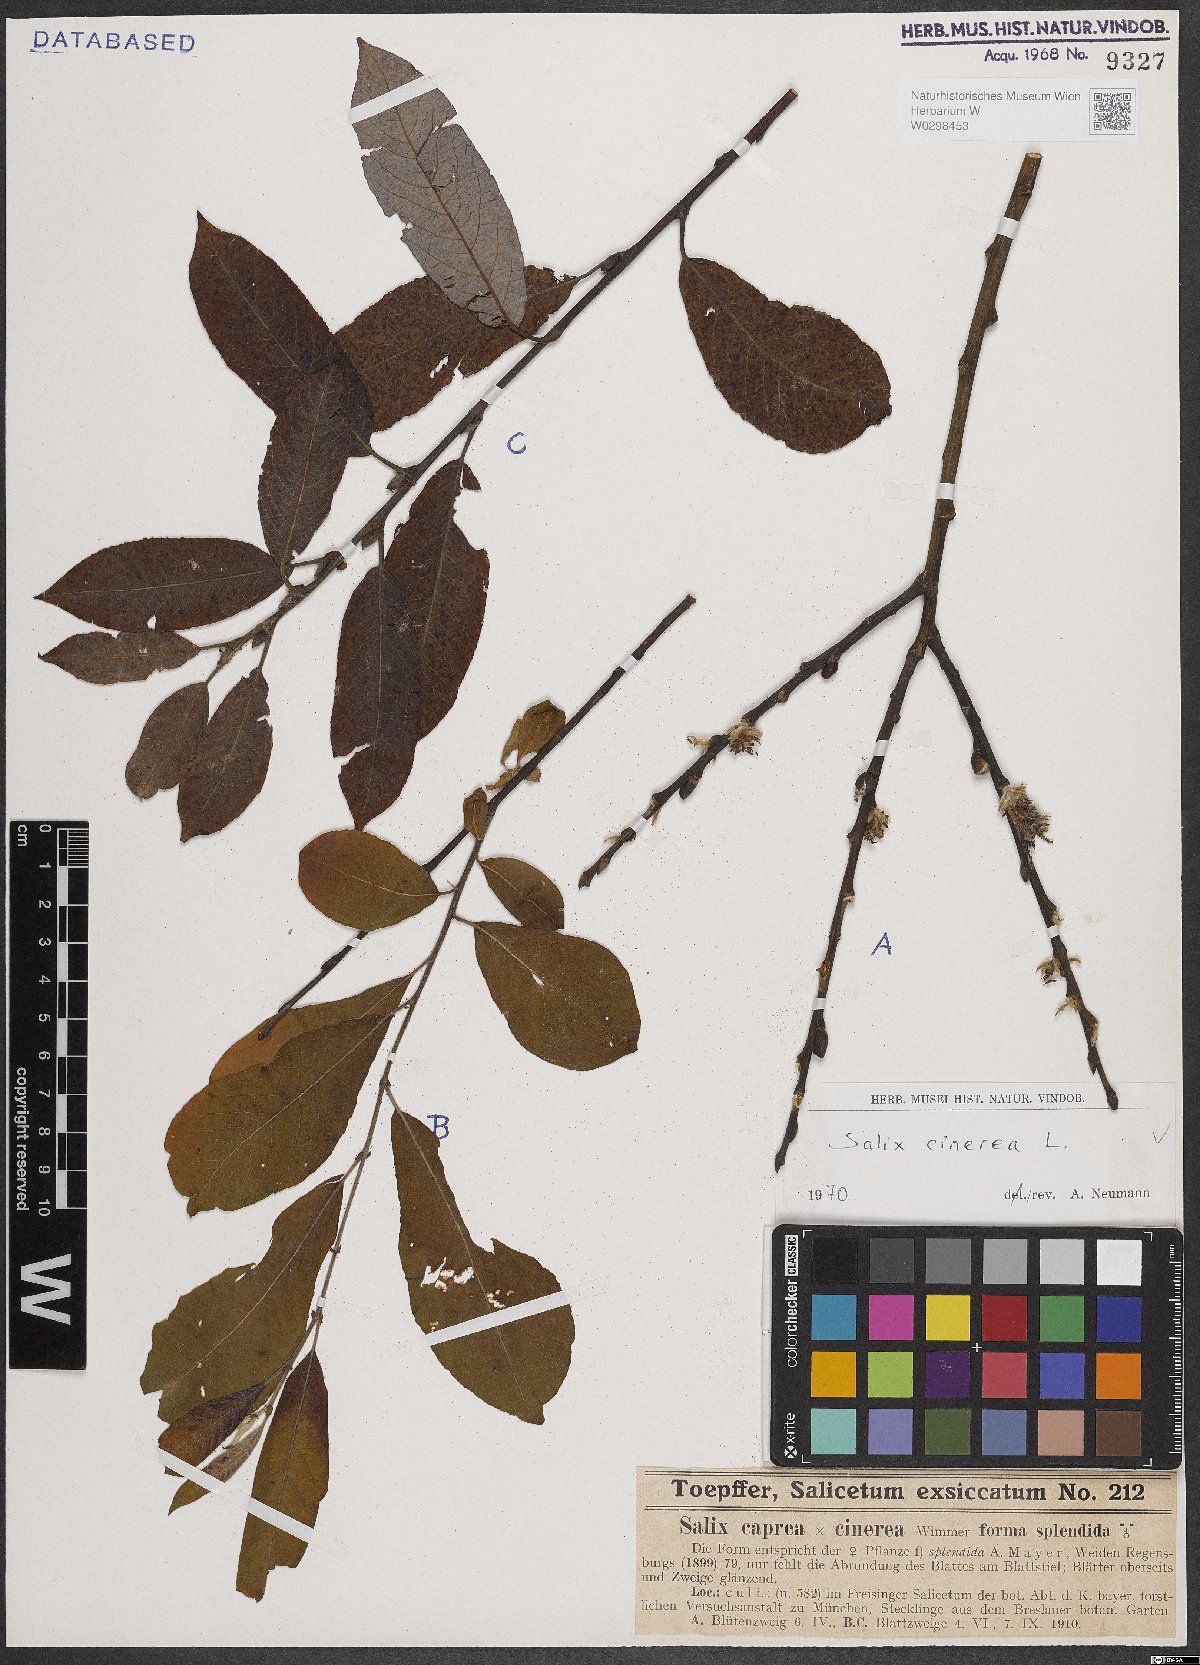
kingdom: Plantae
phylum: Tracheophyta
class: Magnoliopsida
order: Malpighiales
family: Salicaceae
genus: Salix
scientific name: Salix cinerea
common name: Common sallow
